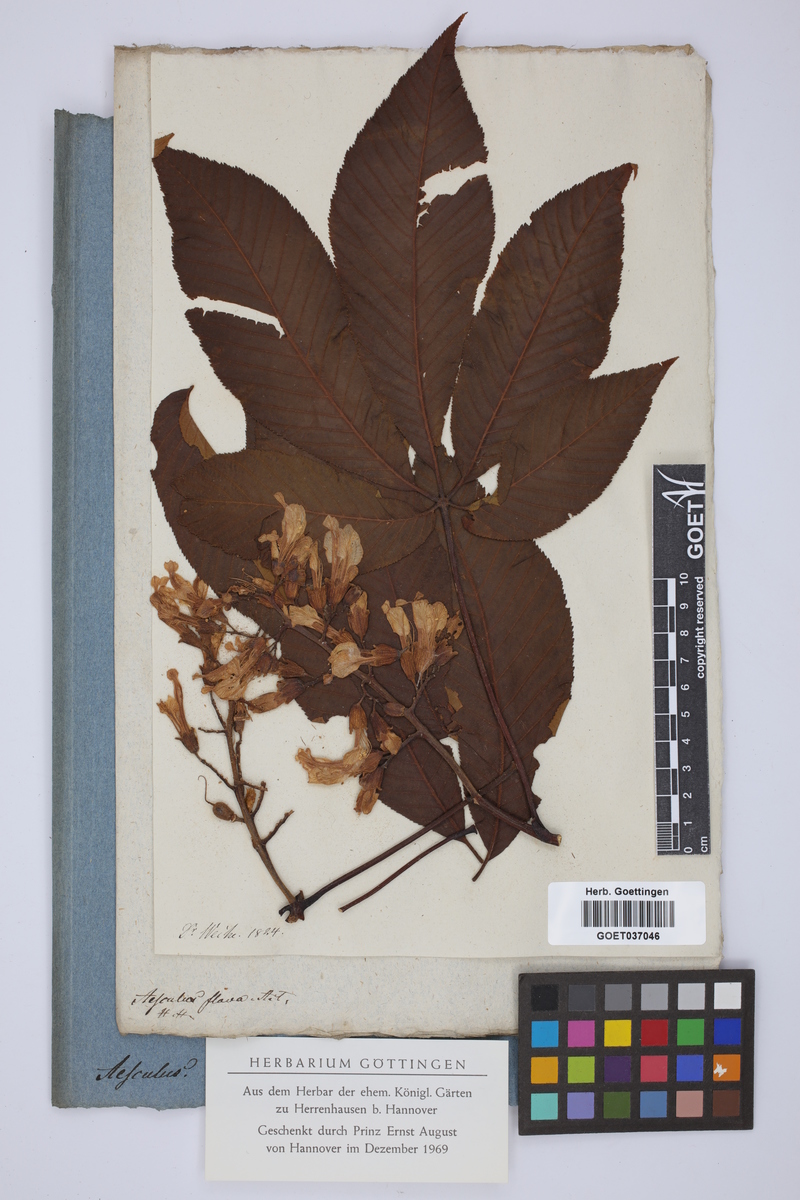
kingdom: Plantae
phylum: Tracheophyta
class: Magnoliopsida
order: Sapindales
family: Sapindaceae
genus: Aesculus
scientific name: Aesculus flava
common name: Yellow buckeye
